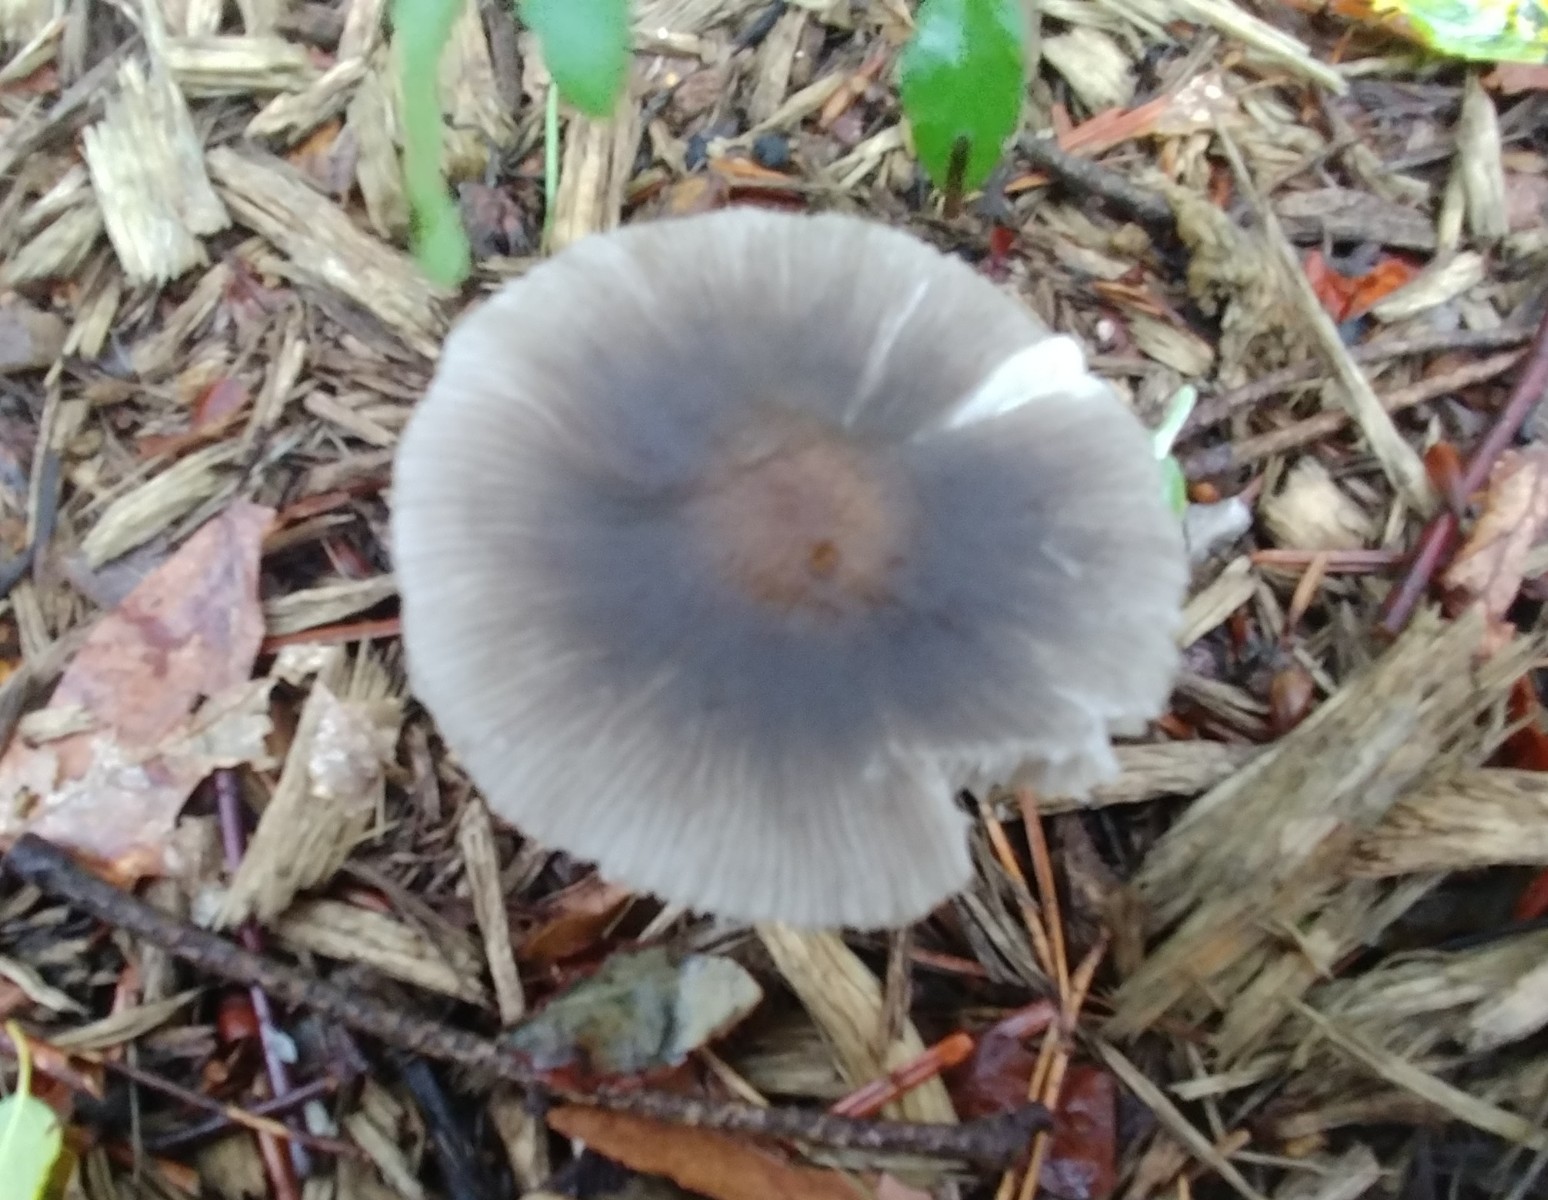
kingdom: Fungi
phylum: Basidiomycota
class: Agaricomycetes
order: Agaricales
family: Pluteaceae
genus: Pluteus
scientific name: Pluteus
